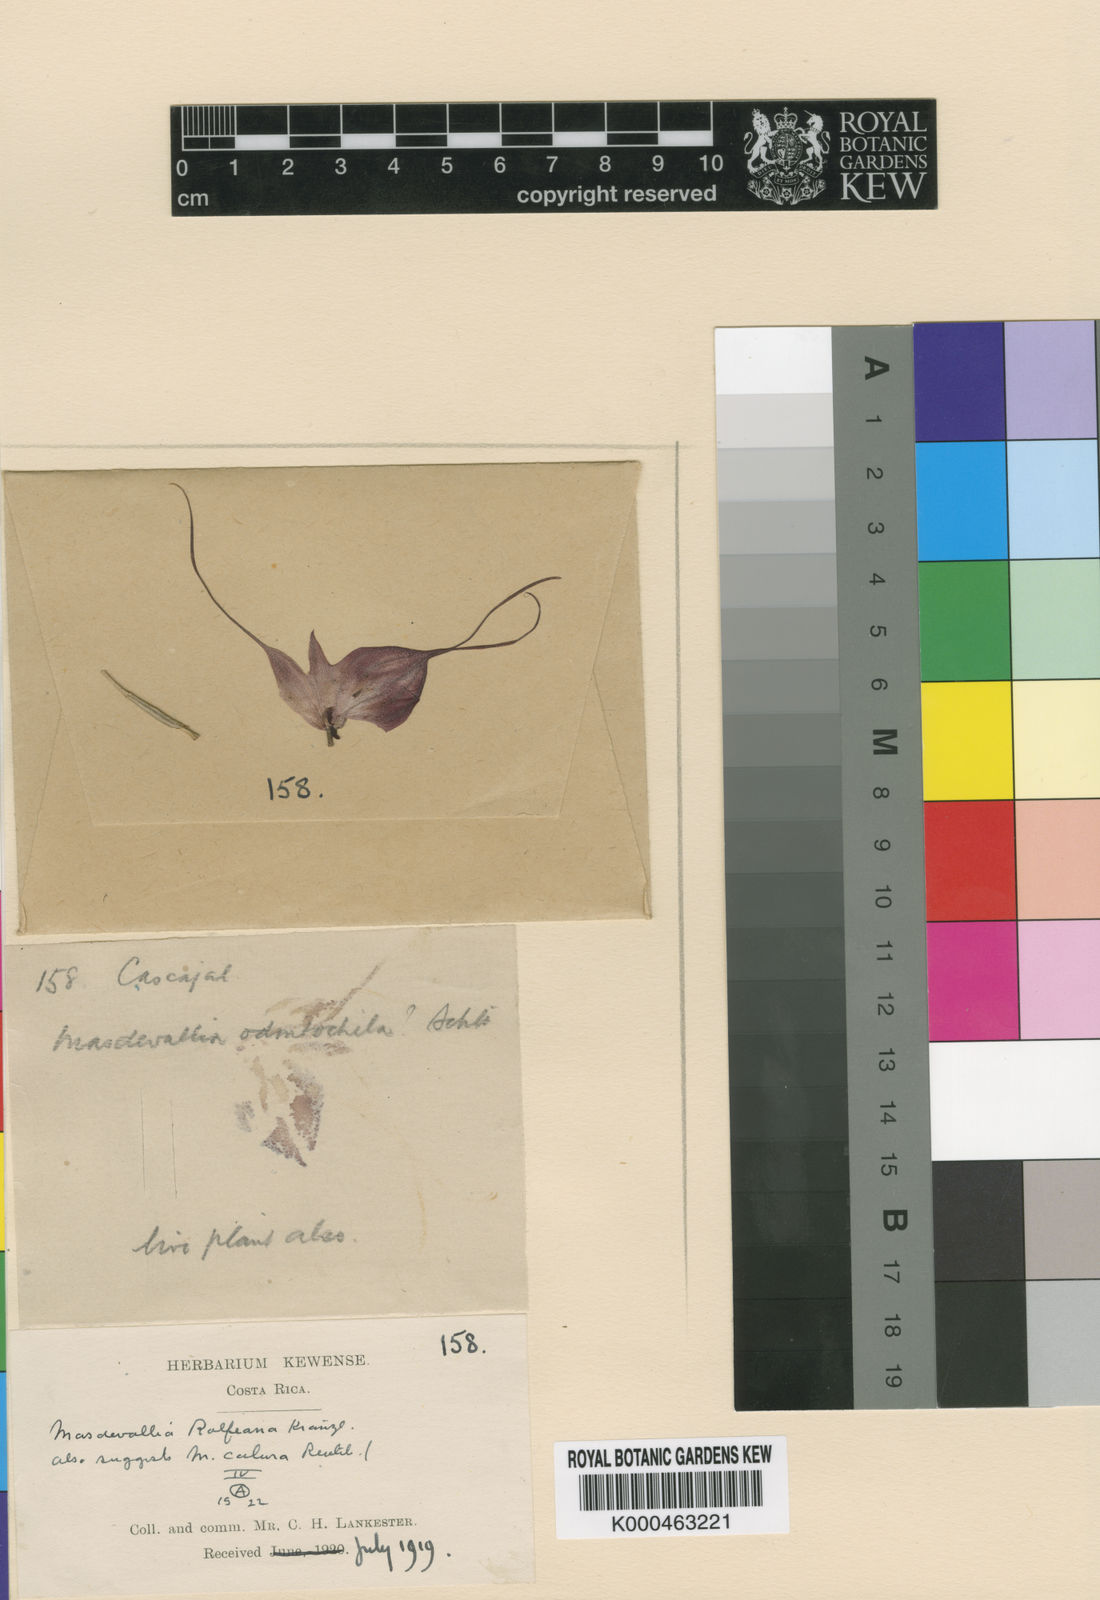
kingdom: Plantae
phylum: Tracheophyta
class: Liliopsida
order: Asparagales
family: Orchidaceae
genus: Masdevallia
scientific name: Masdevallia rolfeana
